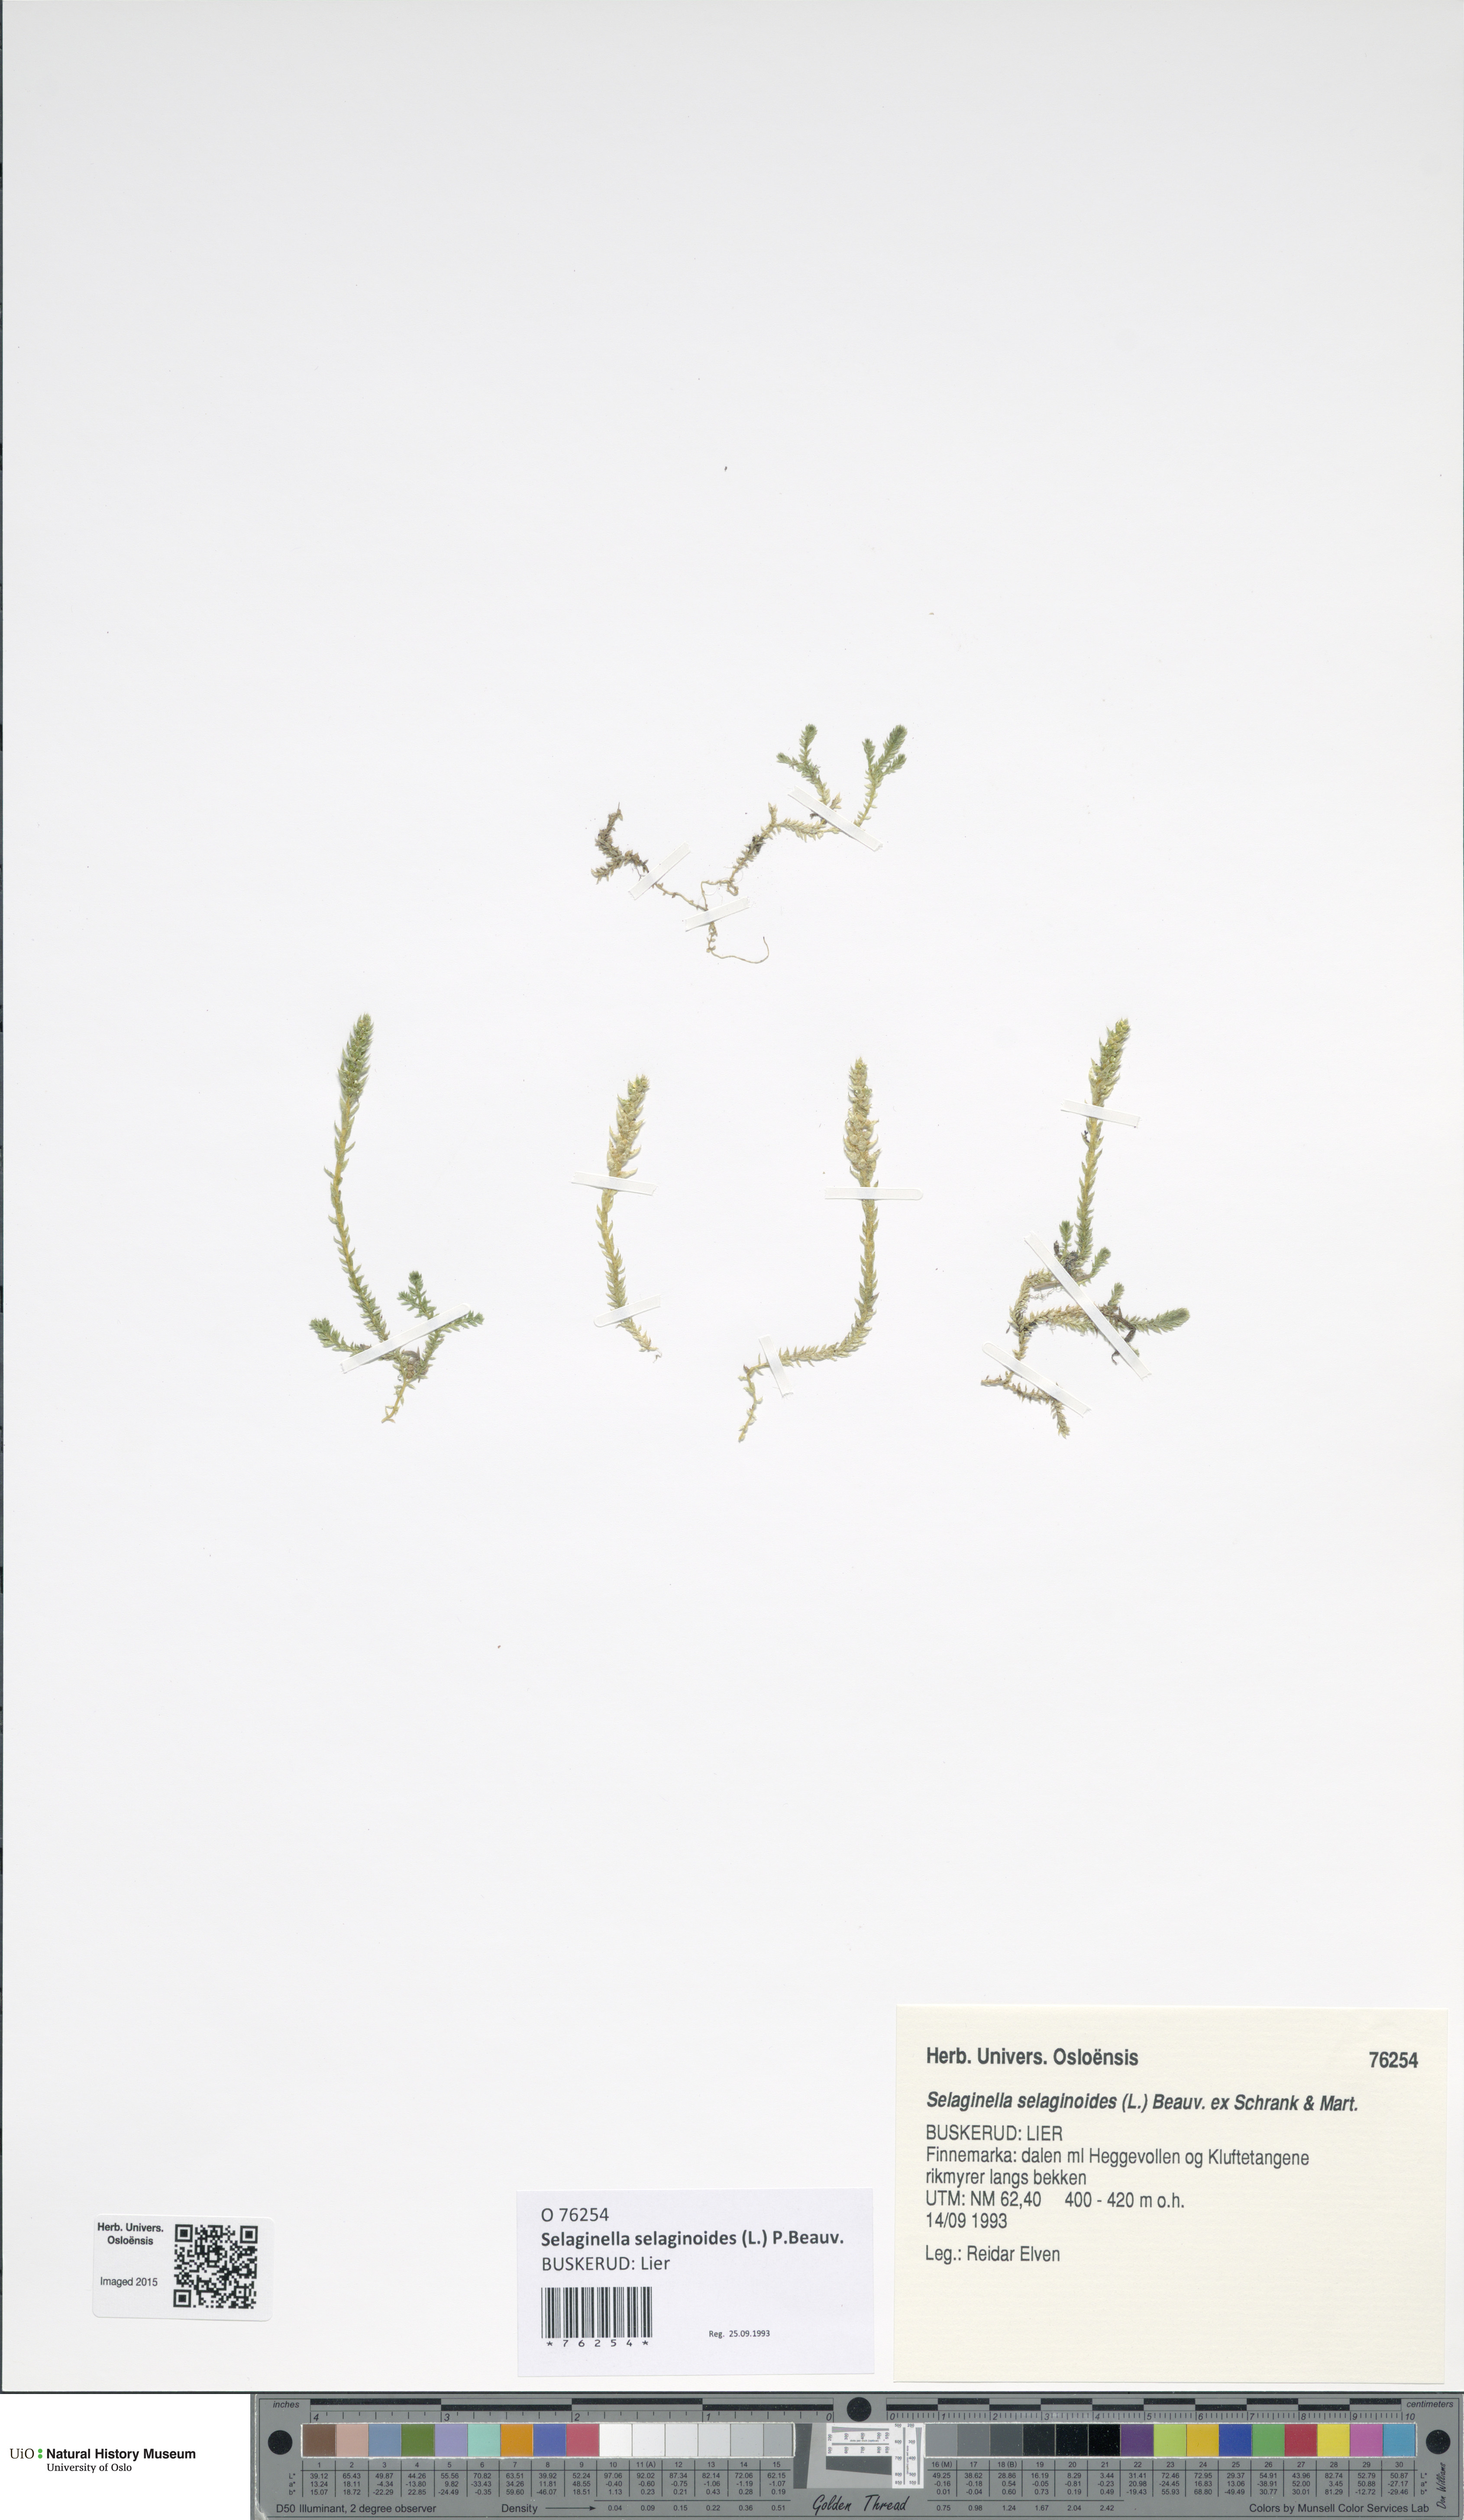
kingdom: Plantae
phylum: Tracheophyta
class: Lycopodiopsida
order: Selaginellales
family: Selaginellaceae
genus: Selaginella
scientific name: Selaginella selaginoides
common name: Prickly mountain-moss
